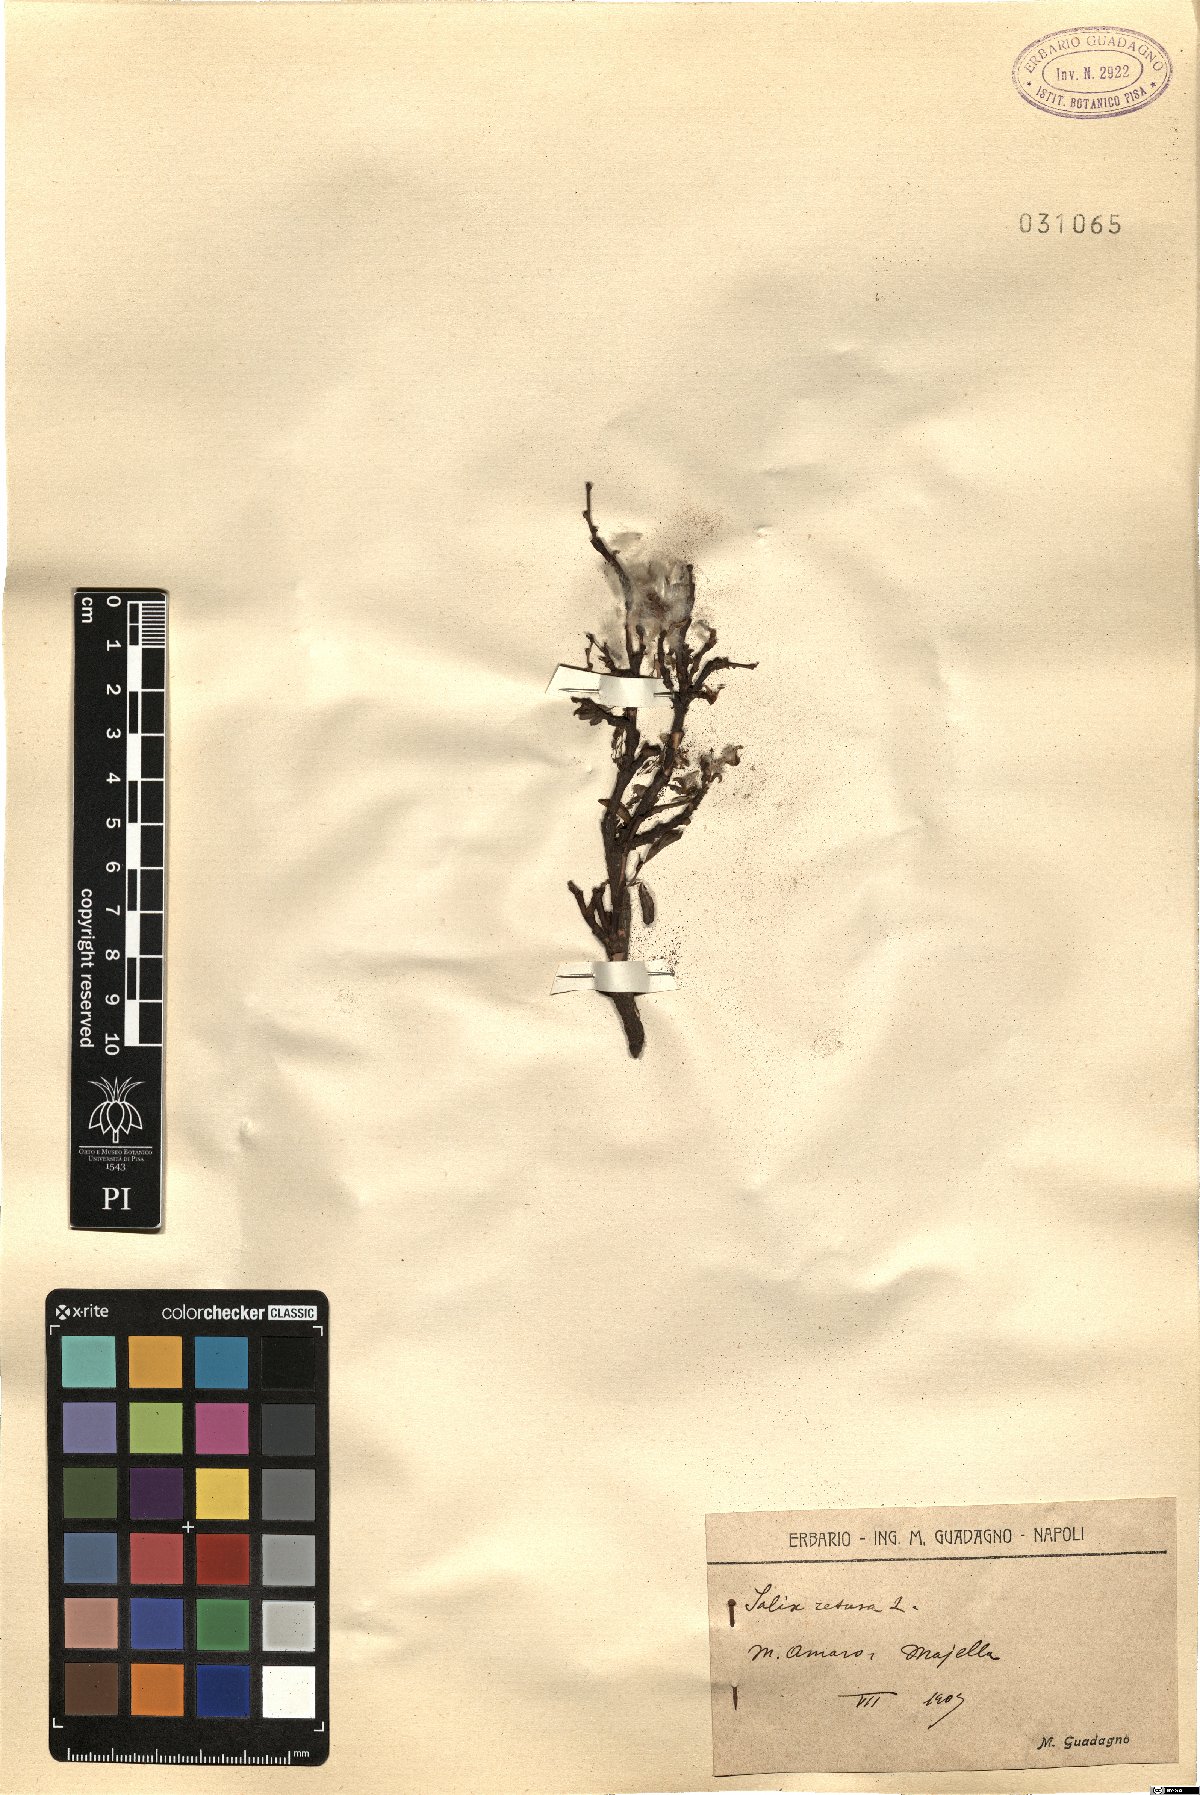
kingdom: Plantae
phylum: Tracheophyta
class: Magnoliopsida
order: Malpighiales
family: Salicaceae
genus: Salix
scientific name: Salix retusa
